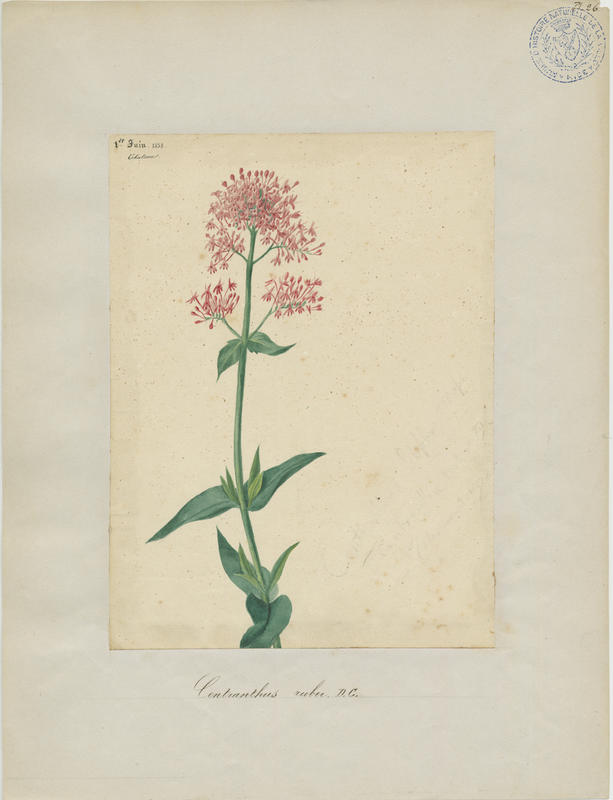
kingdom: Plantae
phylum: Tracheophyta
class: Magnoliopsida
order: Dipsacales
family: Caprifoliaceae
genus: Centranthus
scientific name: Centranthus ruber
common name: Red valerian
